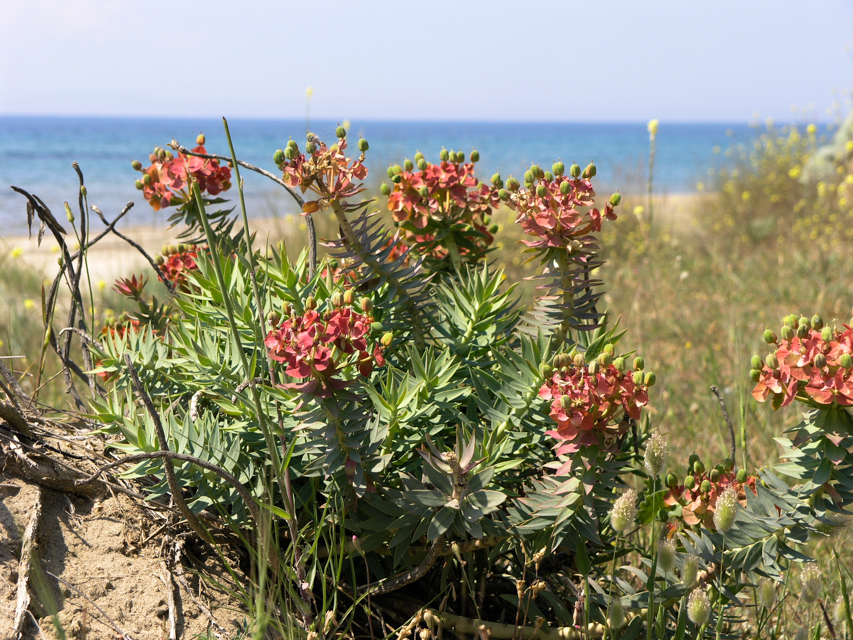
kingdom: Plantae
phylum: Tracheophyta
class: Magnoliopsida
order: Malpighiales
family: Euphorbiaceae
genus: Euphorbia
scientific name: Euphorbia myrsinites
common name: Myrtle spurge
